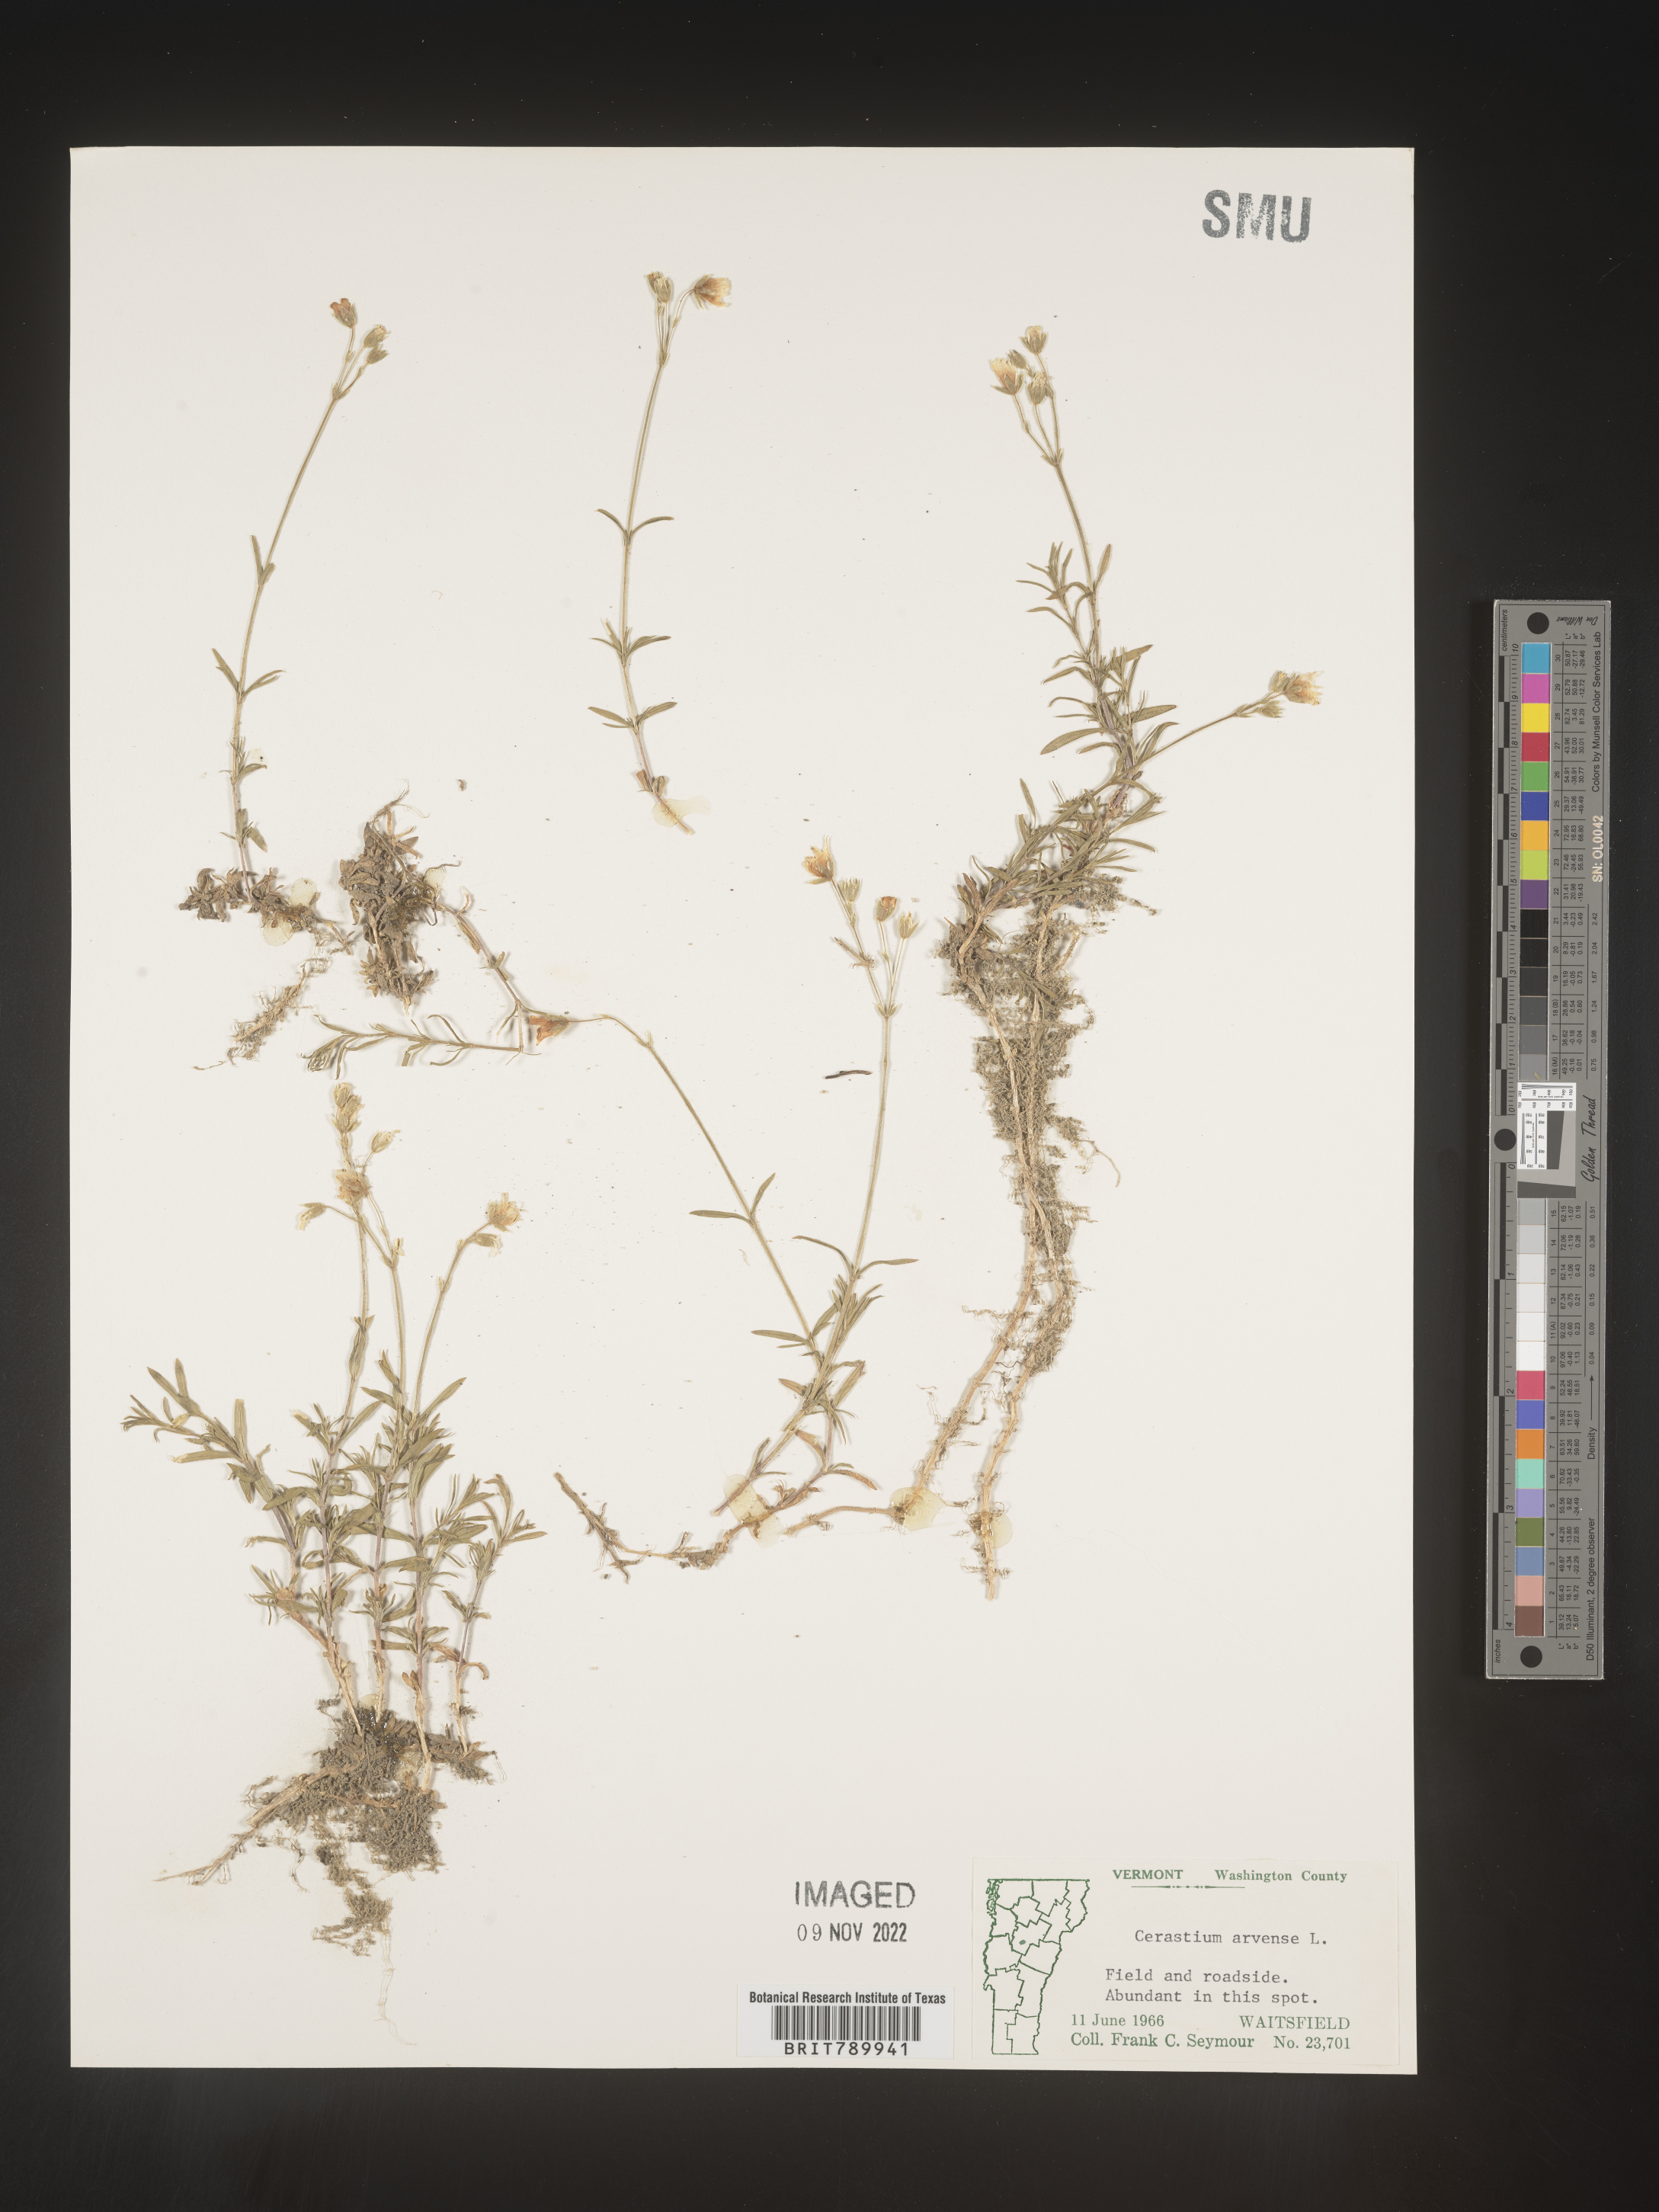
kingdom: Plantae
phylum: Tracheophyta
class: Magnoliopsida
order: Caryophyllales
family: Caryophyllaceae
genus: Cerastium
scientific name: Cerastium arvense
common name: Field mouse-ear
